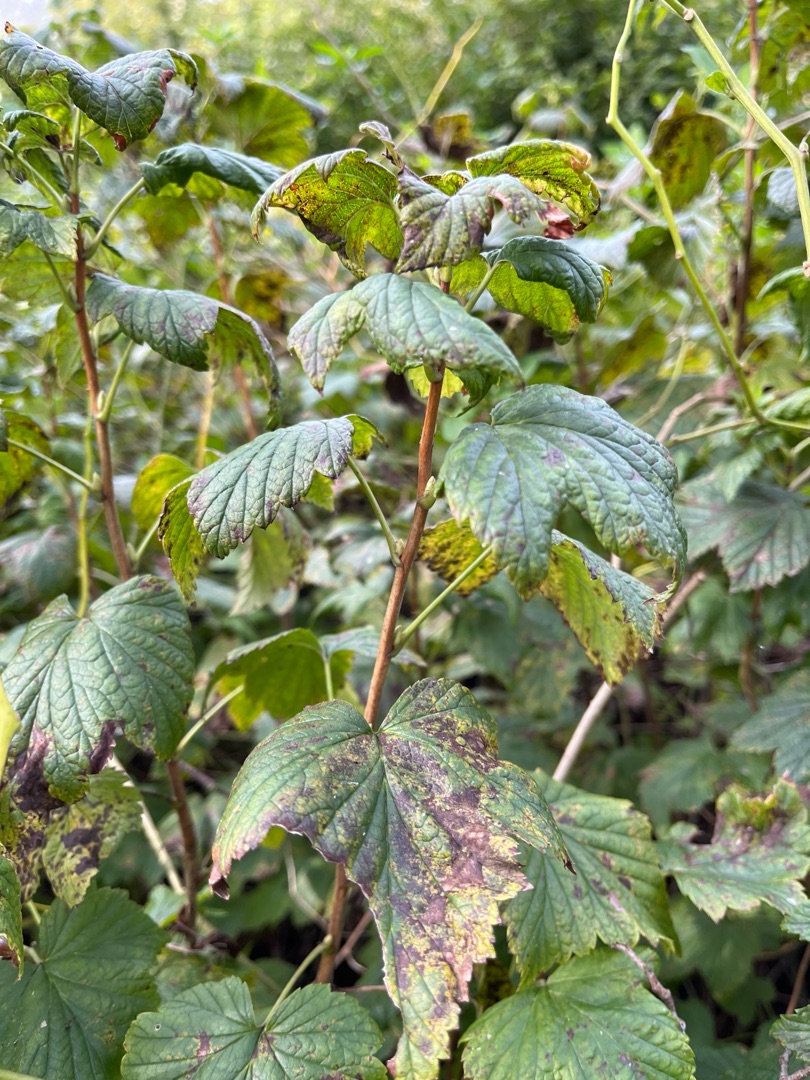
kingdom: Plantae
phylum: Tracheophyta
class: Magnoliopsida
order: Saxifragales
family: Grossulariaceae
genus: Ribes
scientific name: Ribes nigrum
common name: Solbær
